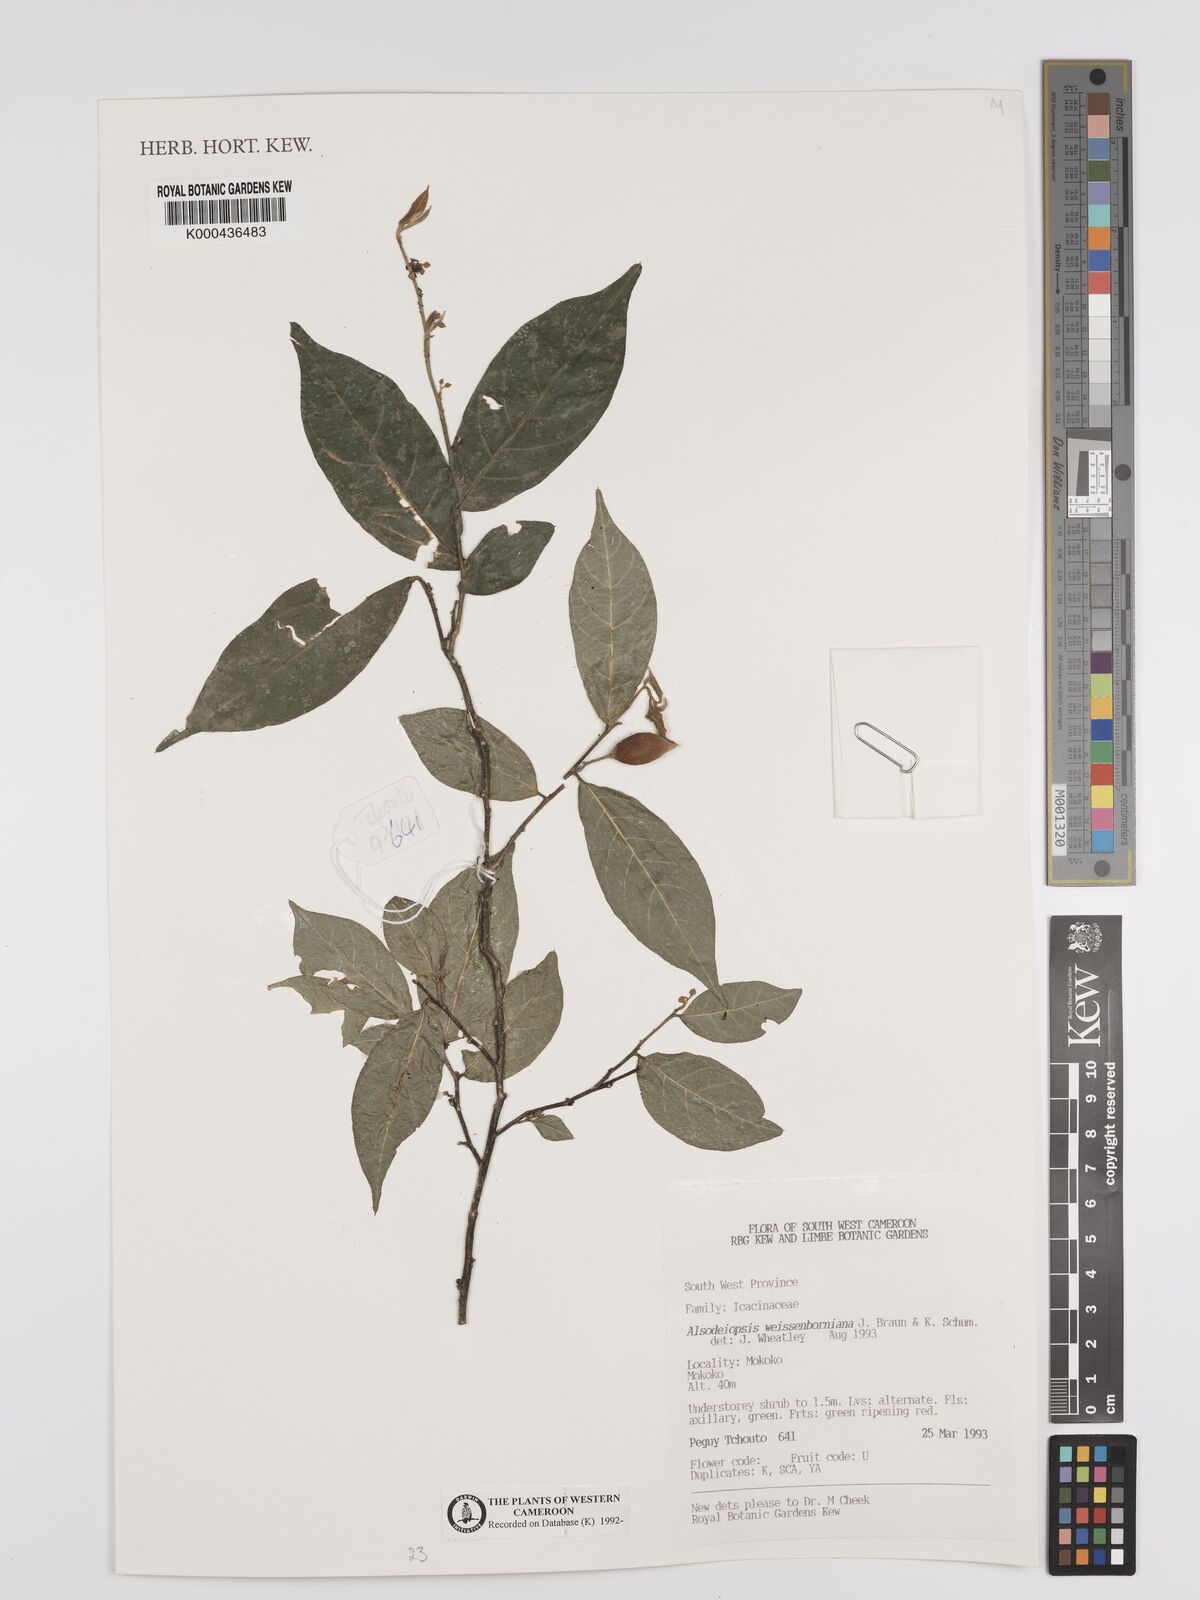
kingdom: Plantae
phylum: Tracheophyta
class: Magnoliopsida
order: Icacinales
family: Icacinaceae
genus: Alsodeiopsis
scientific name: Alsodeiopsis mannii
